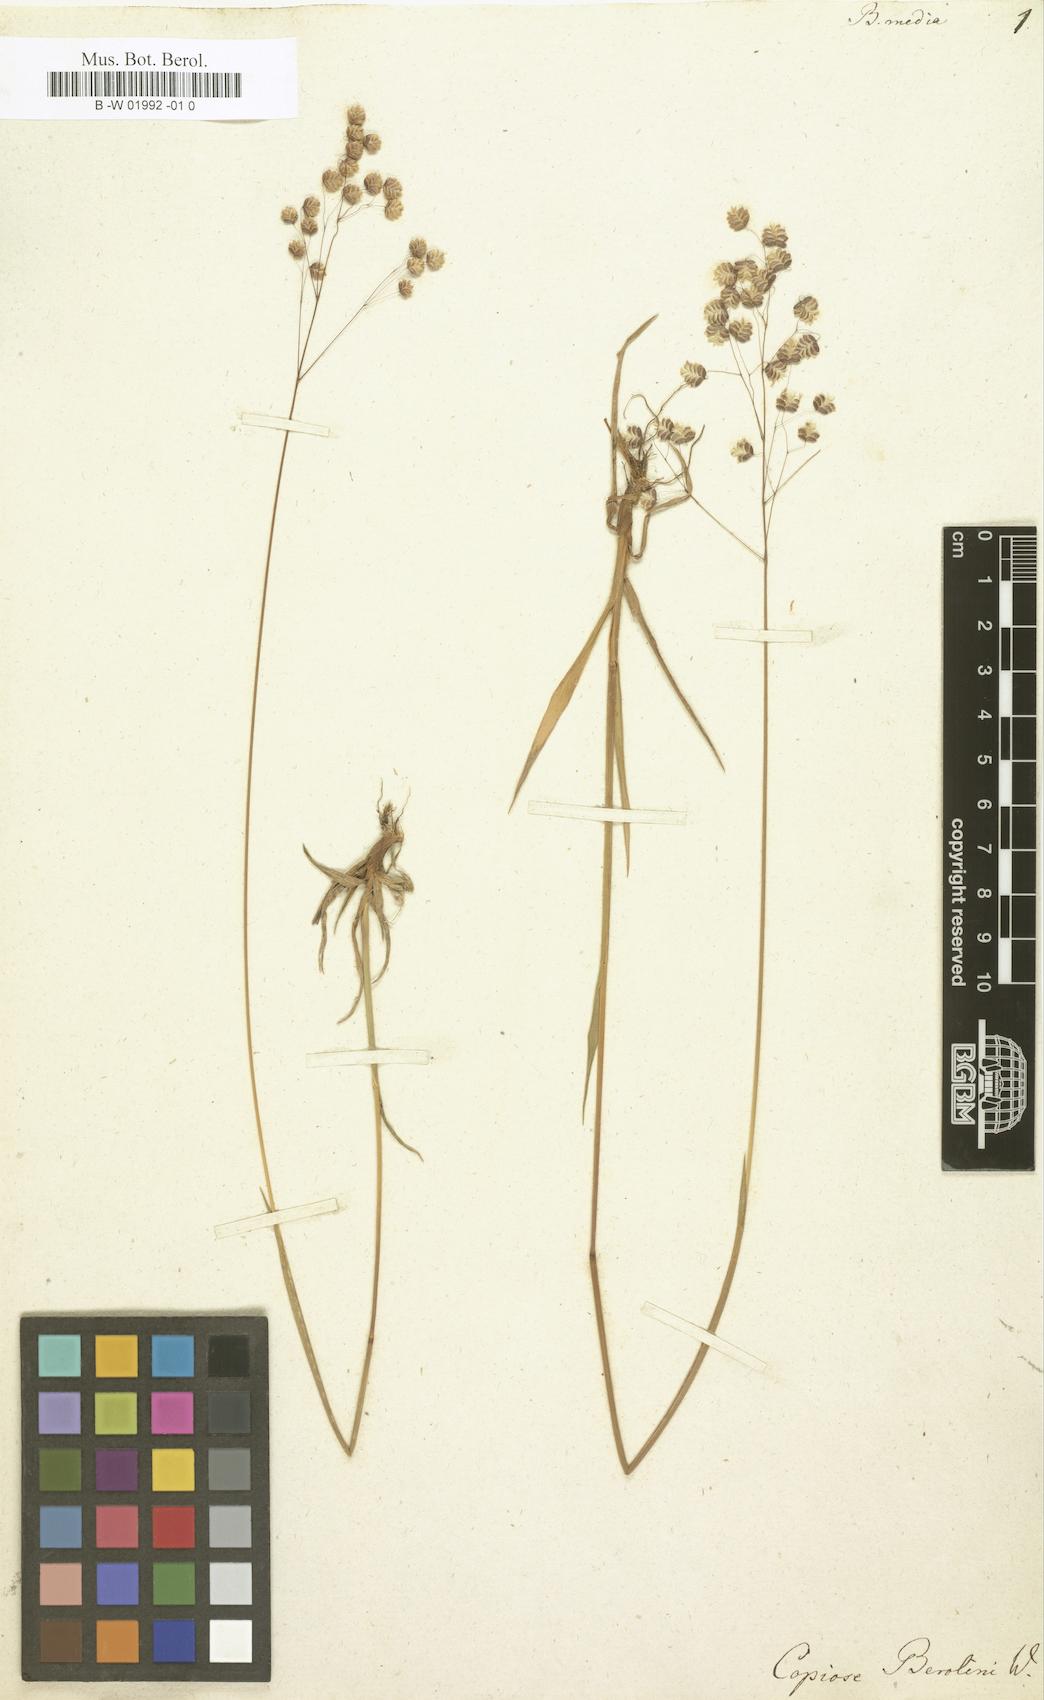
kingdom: Plantae
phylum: Tracheophyta
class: Liliopsida
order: Poales
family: Poaceae
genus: Briza
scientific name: Briza media
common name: Quaking grass
